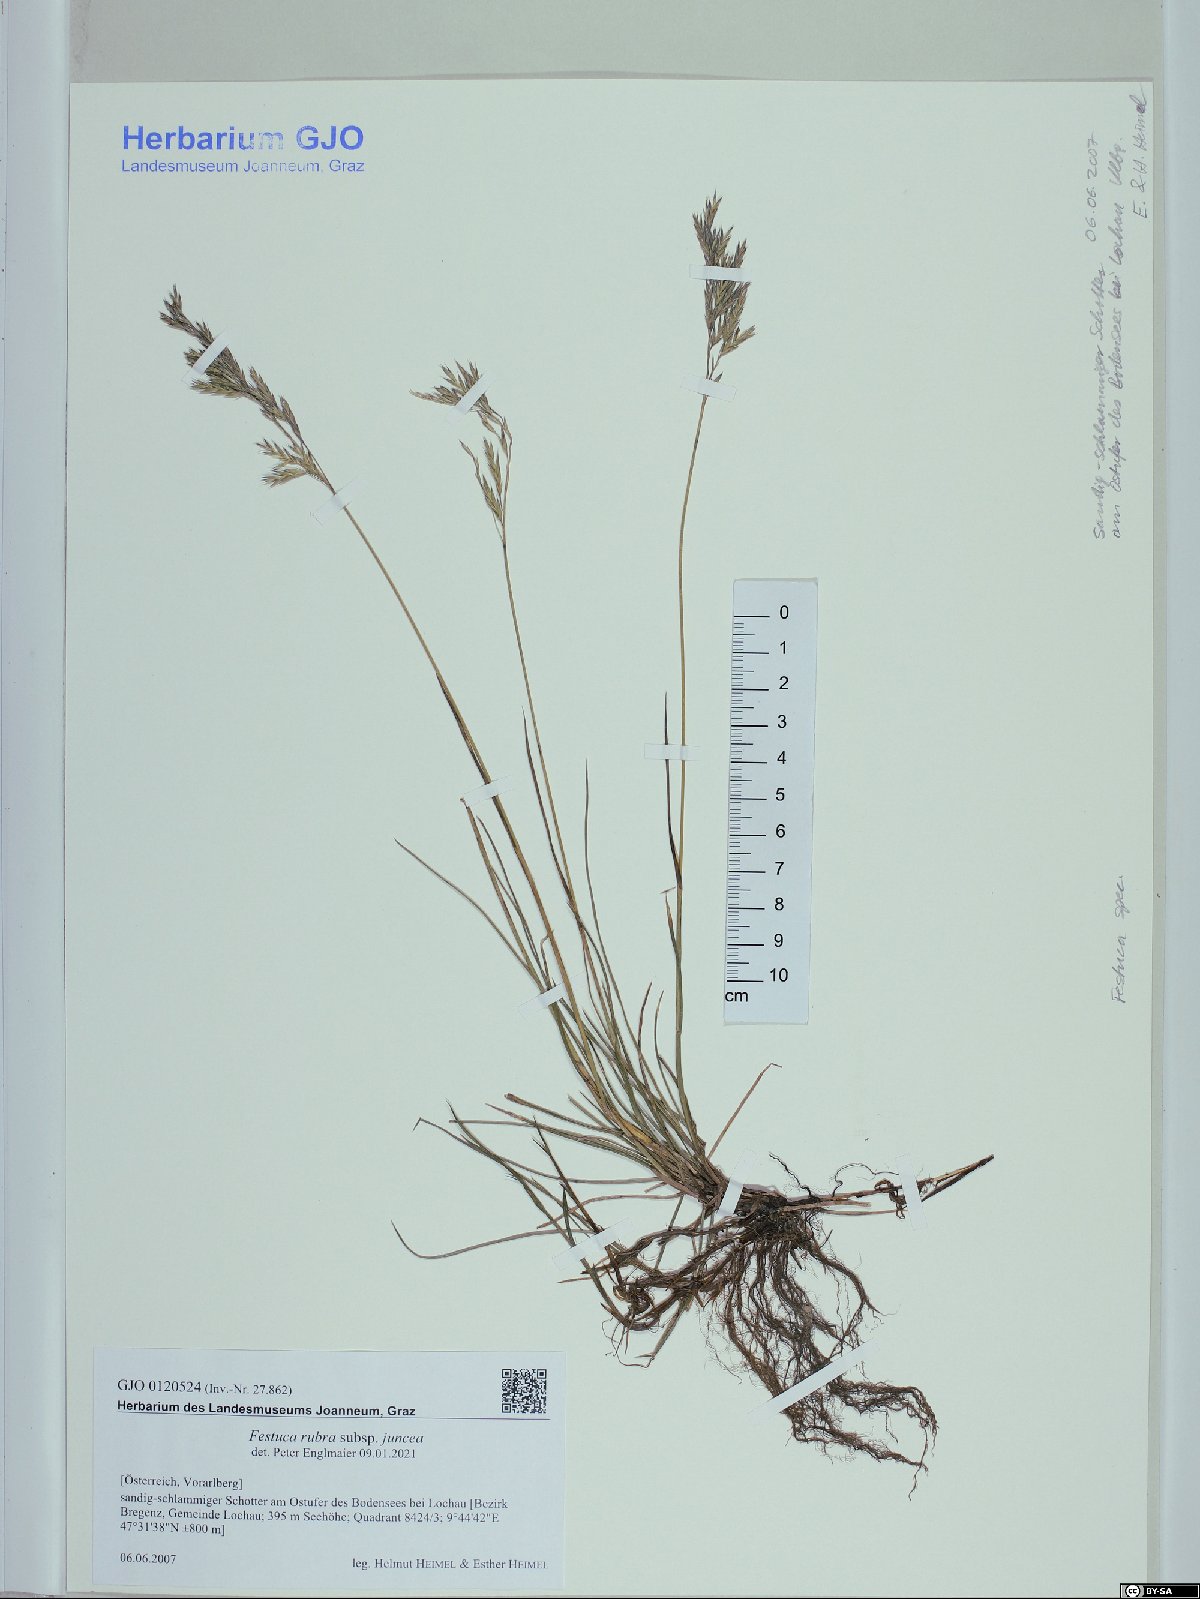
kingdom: Plantae
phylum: Tracheophyta
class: Liliopsida
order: Poales
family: Poaceae
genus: Festuca
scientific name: Festuca rubra
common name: Red fescue
